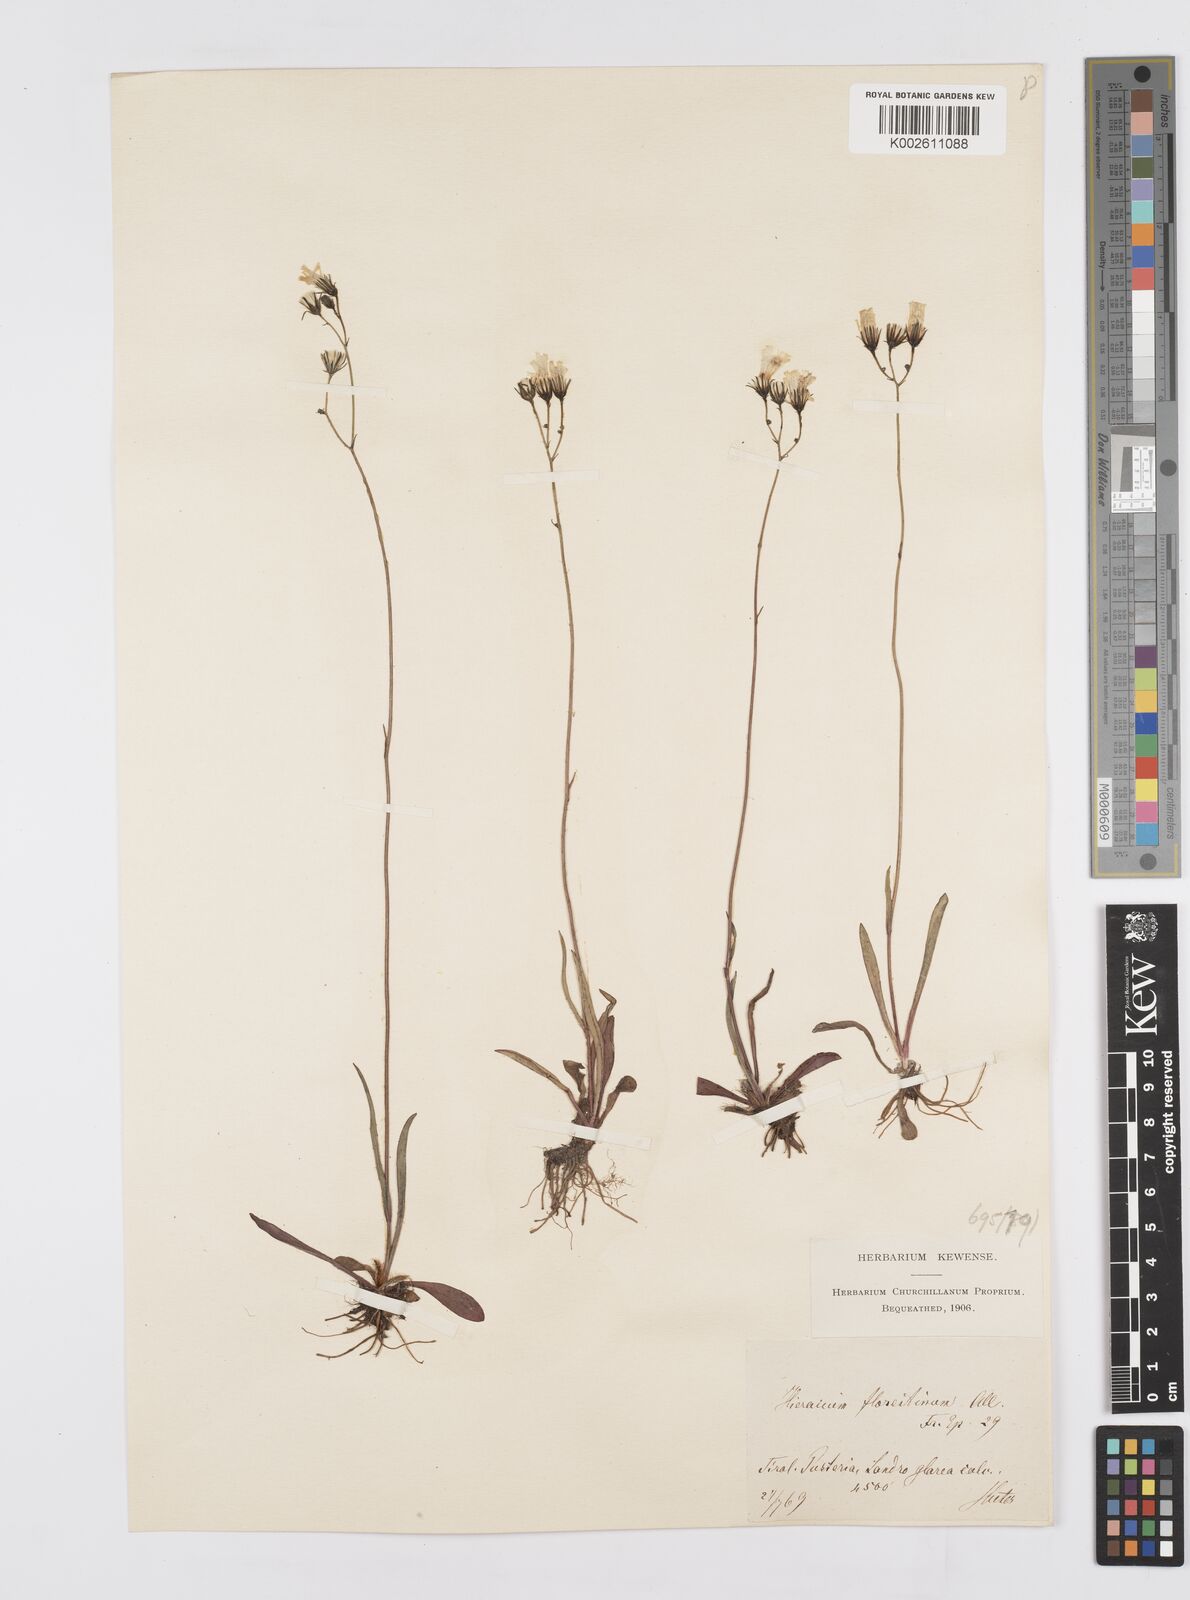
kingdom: Plantae
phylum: Tracheophyta
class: Magnoliopsida
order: Asterales
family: Asteraceae
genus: Pilosella
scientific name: Pilosella piloselloides
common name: Glaucous king-devil
